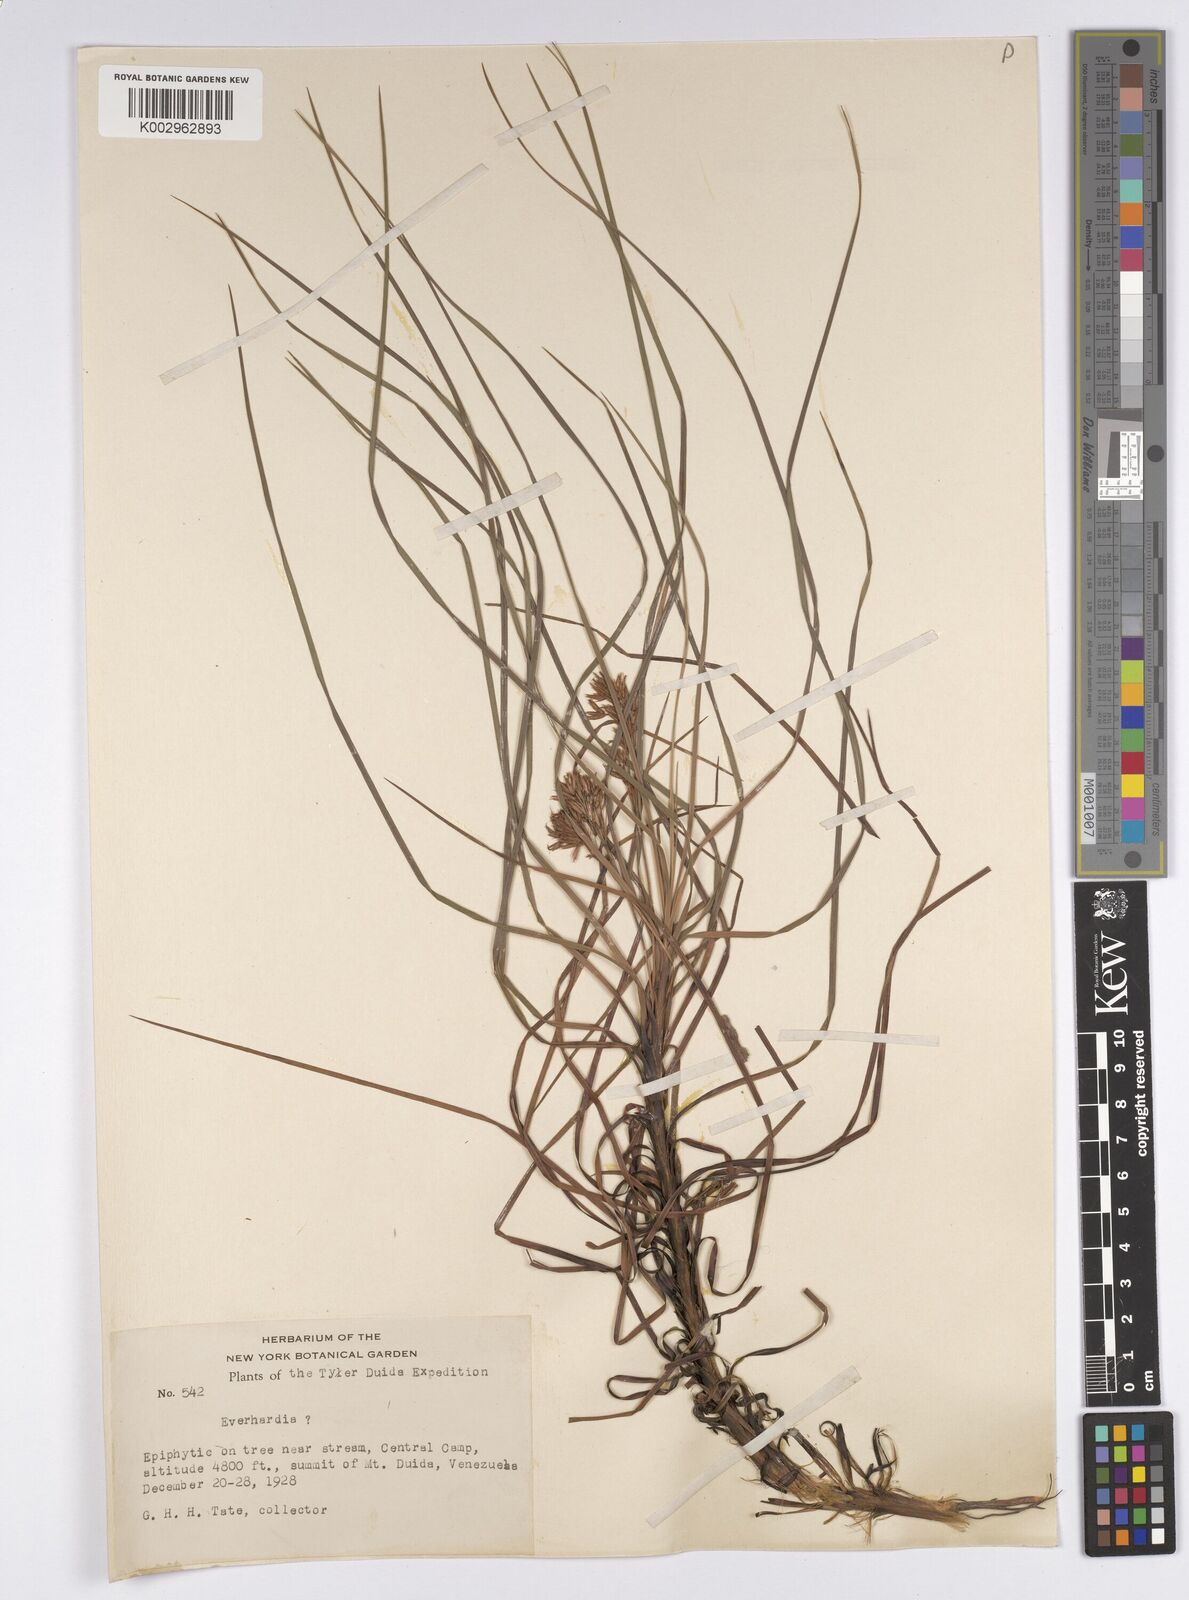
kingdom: Plantae
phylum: Tracheophyta
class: Liliopsida
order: Poales
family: Cyperaceae
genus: Everardia
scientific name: Everardia
